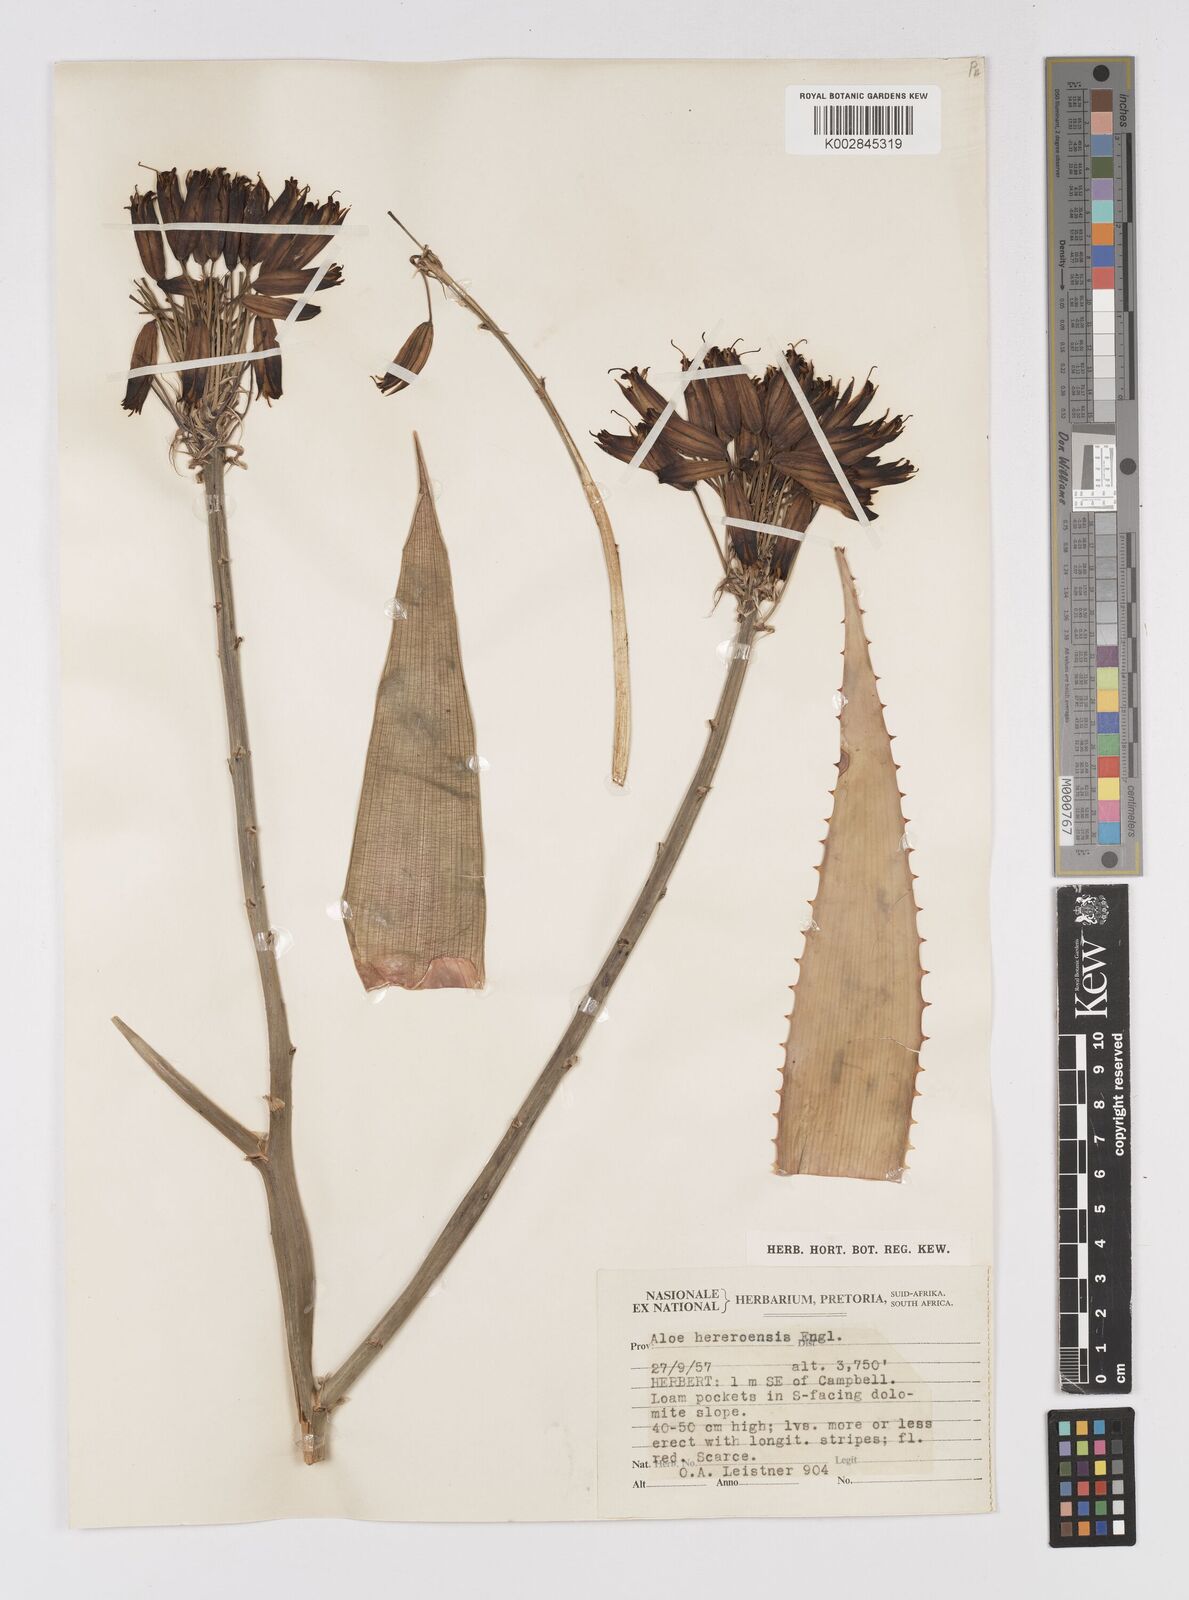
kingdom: Plantae
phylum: Tracheophyta
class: Liliopsida
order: Asparagales
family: Asphodelaceae
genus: Aloe
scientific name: Aloe hereroensis
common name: Herero aloe
